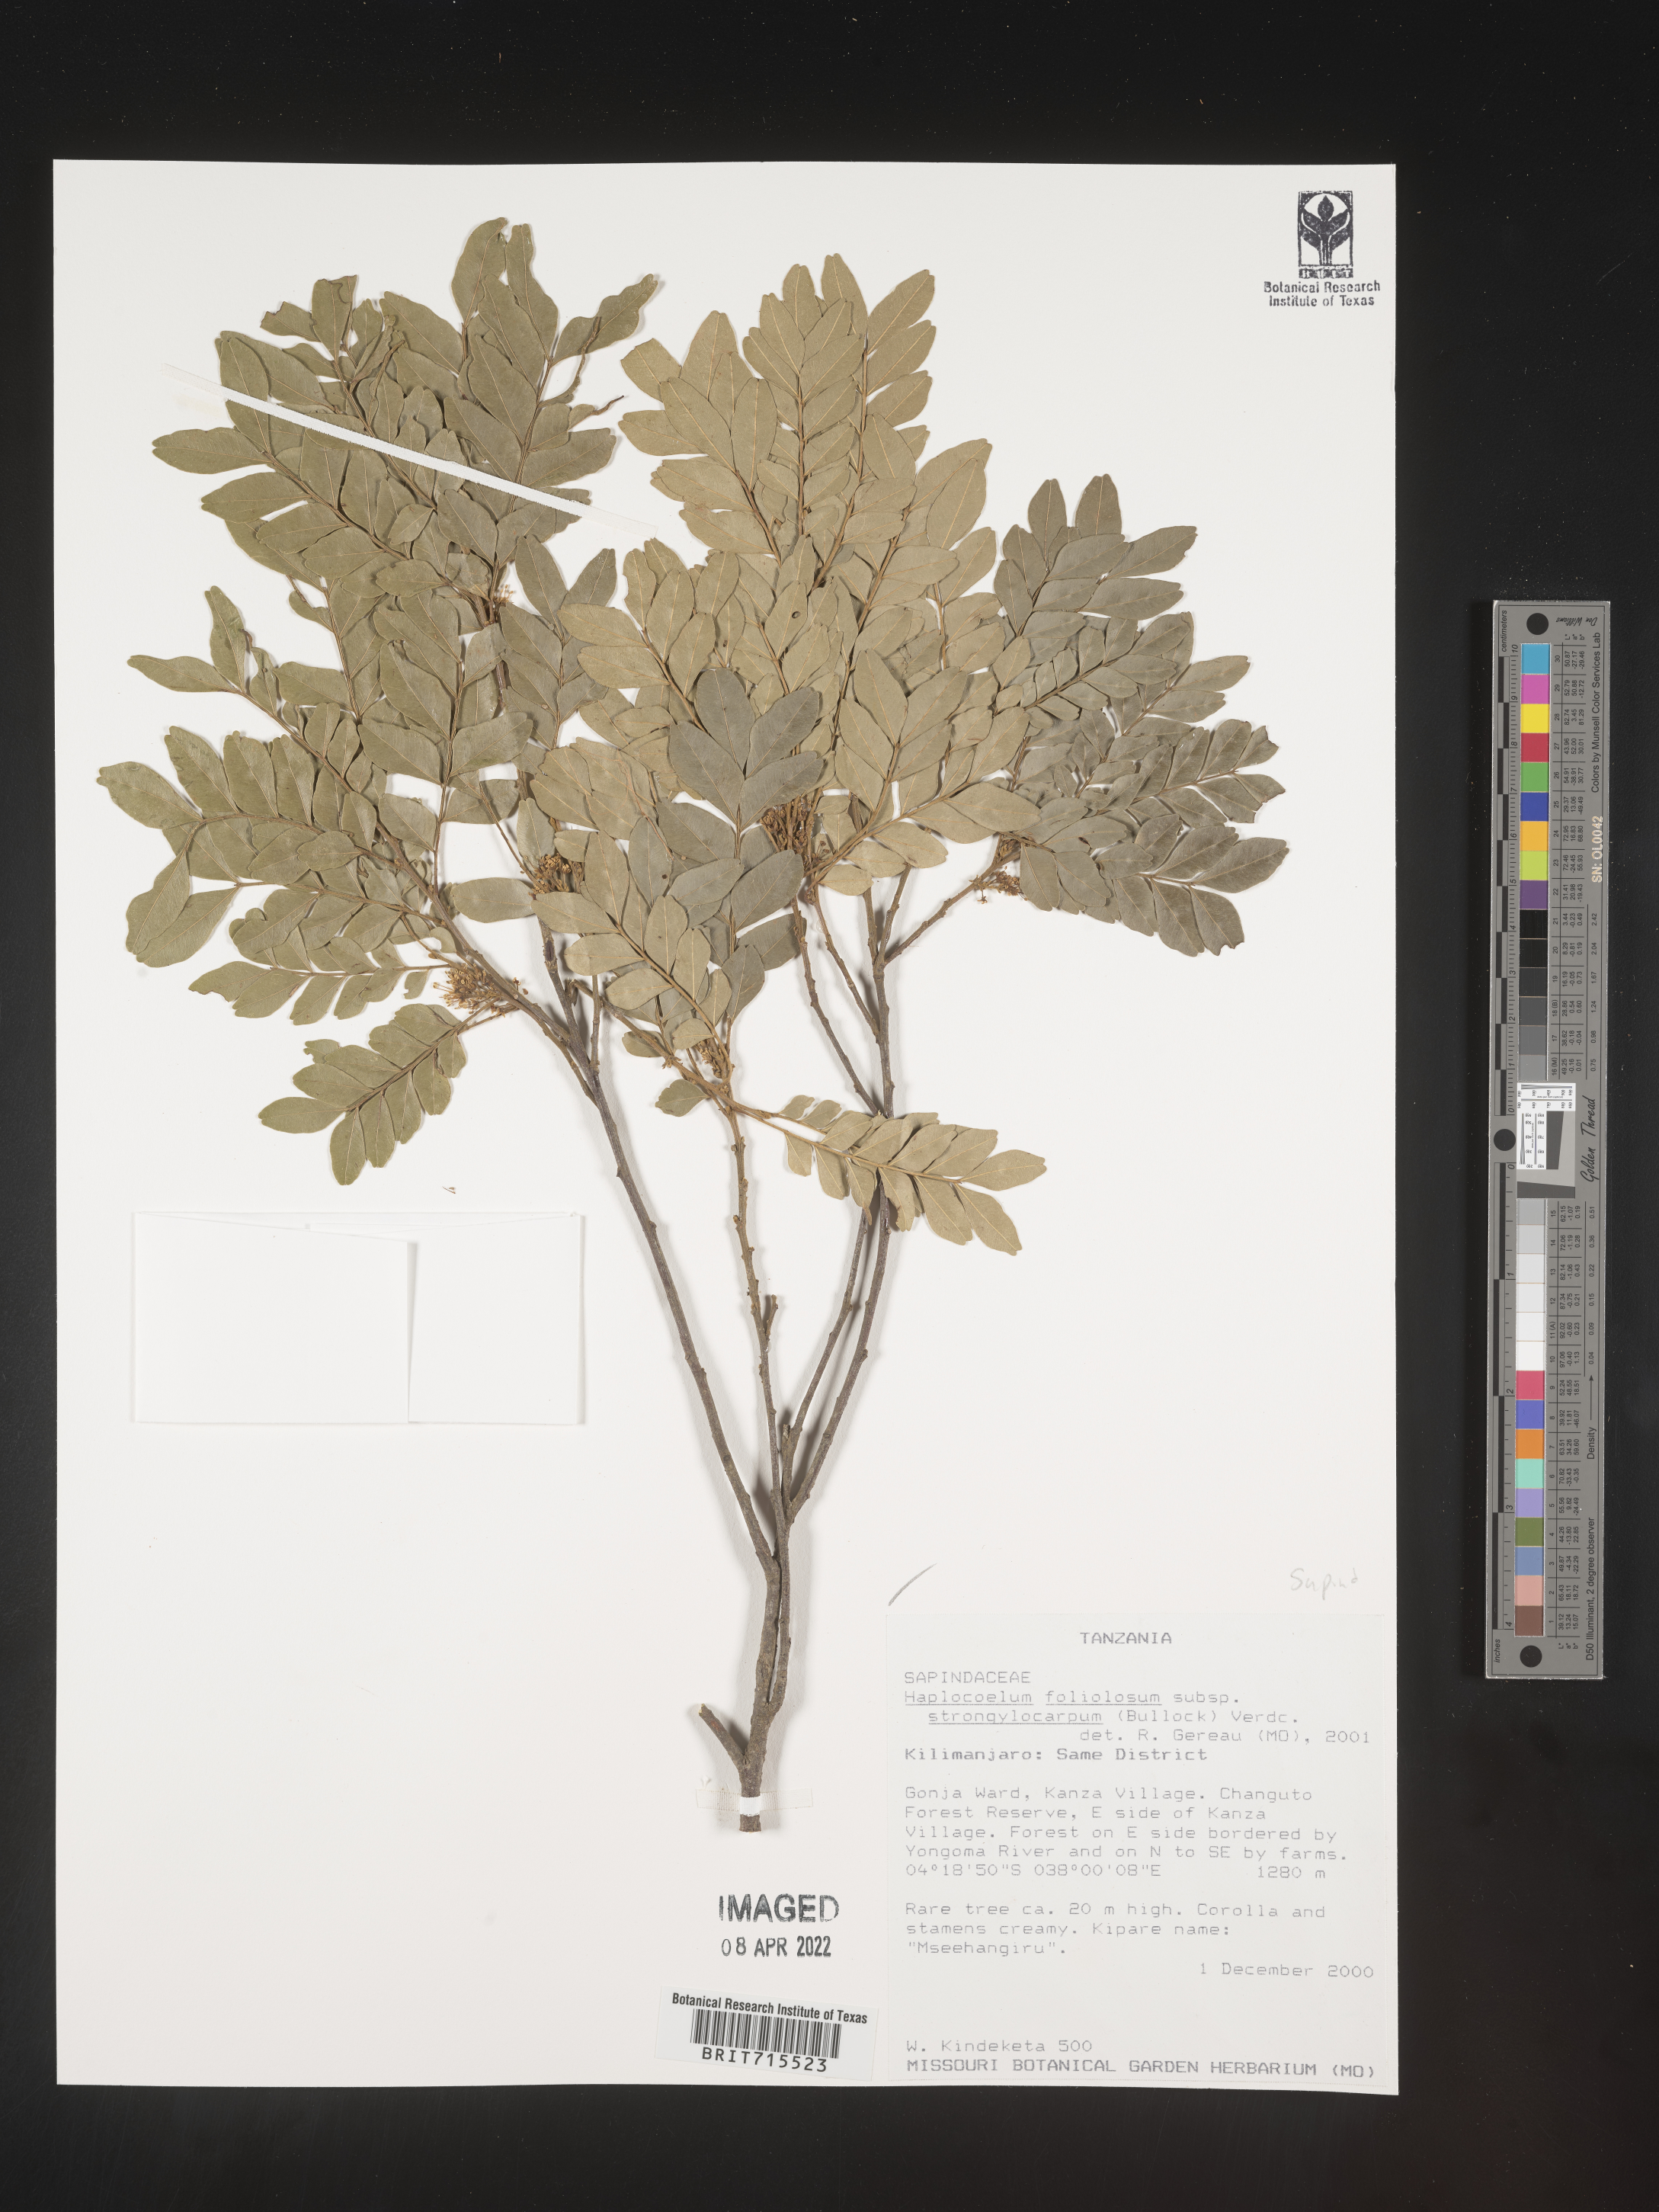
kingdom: Plantae
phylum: Tracheophyta
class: Magnoliopsida
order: Sapindales
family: Sapindaceae
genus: Haplocoelum
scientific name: Haplocoelum
